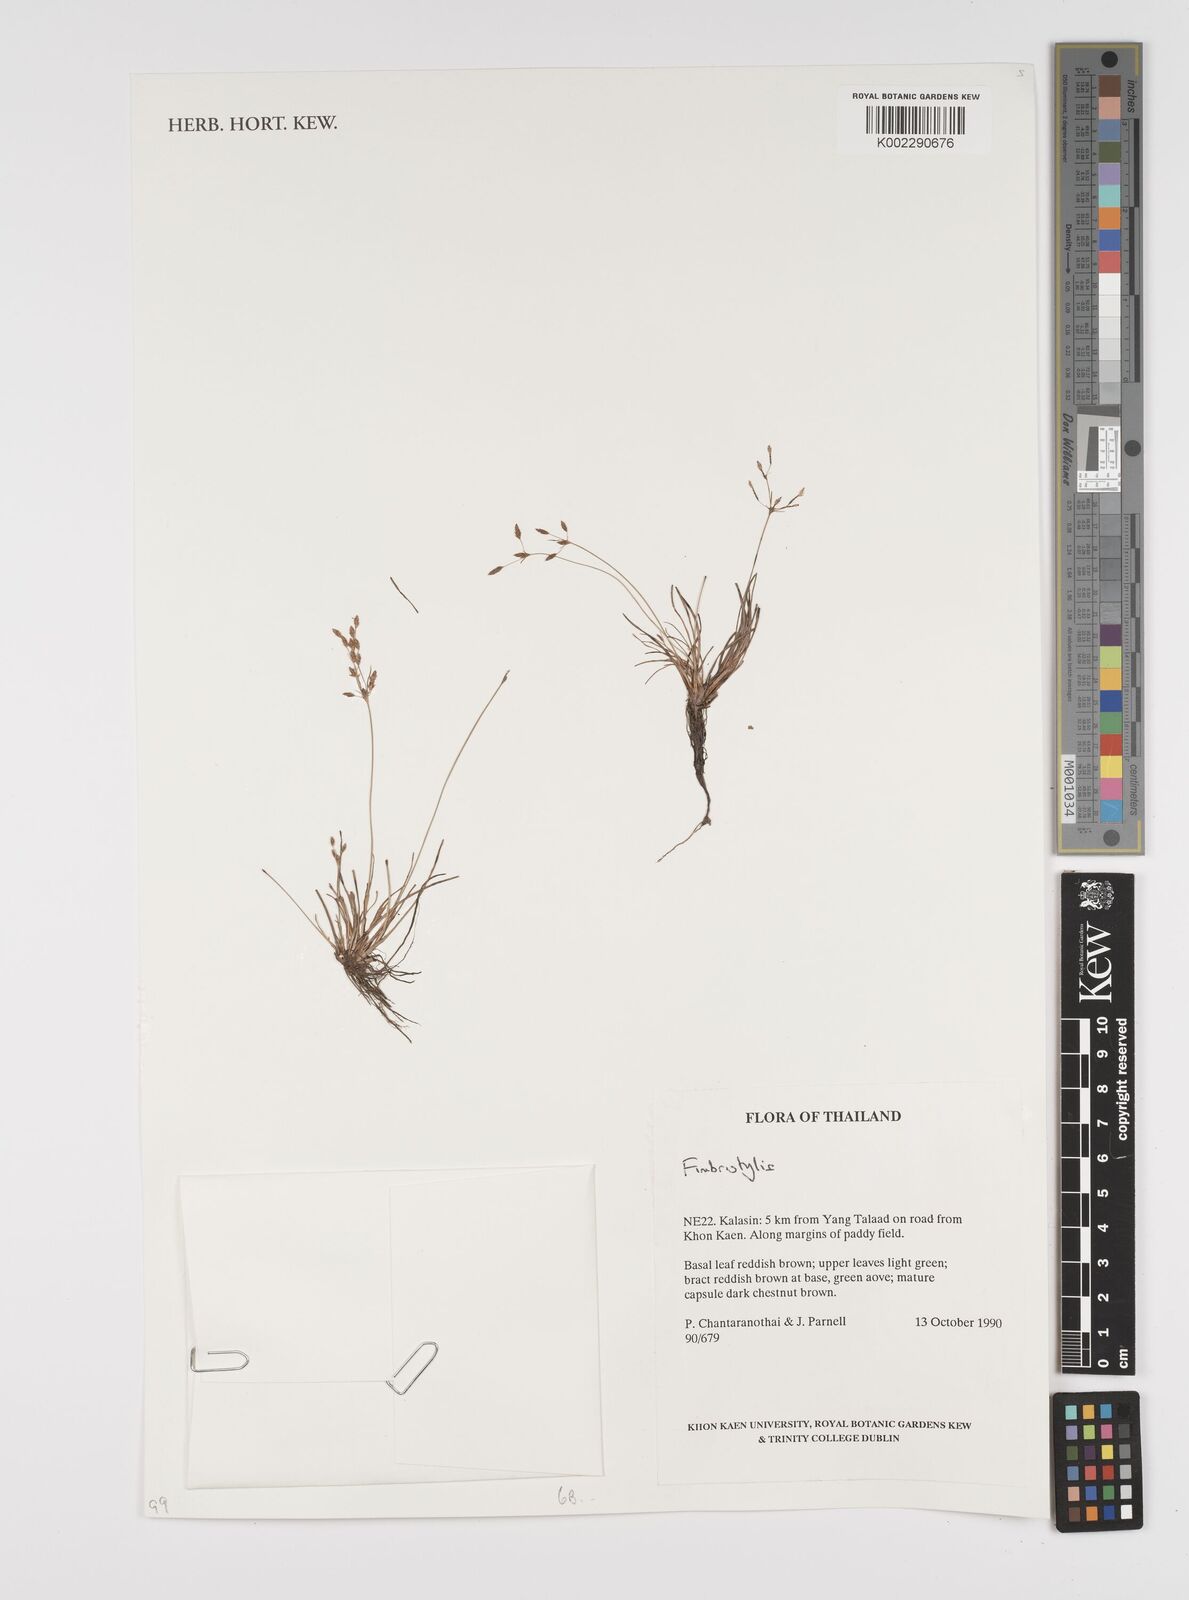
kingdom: Plantae
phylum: Tracheophyta
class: Liliopsida
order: Poales
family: Cyperaceae
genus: Fimbristylis
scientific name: Fimbristylis
